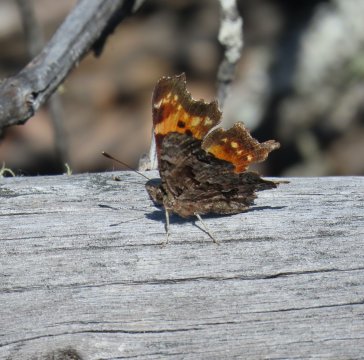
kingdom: Animalia
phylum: Arthropoda
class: Insecta
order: Lepidoptera
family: Nymphalidae
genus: Polygonia
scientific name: Polygonia faunus
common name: Green Comma
